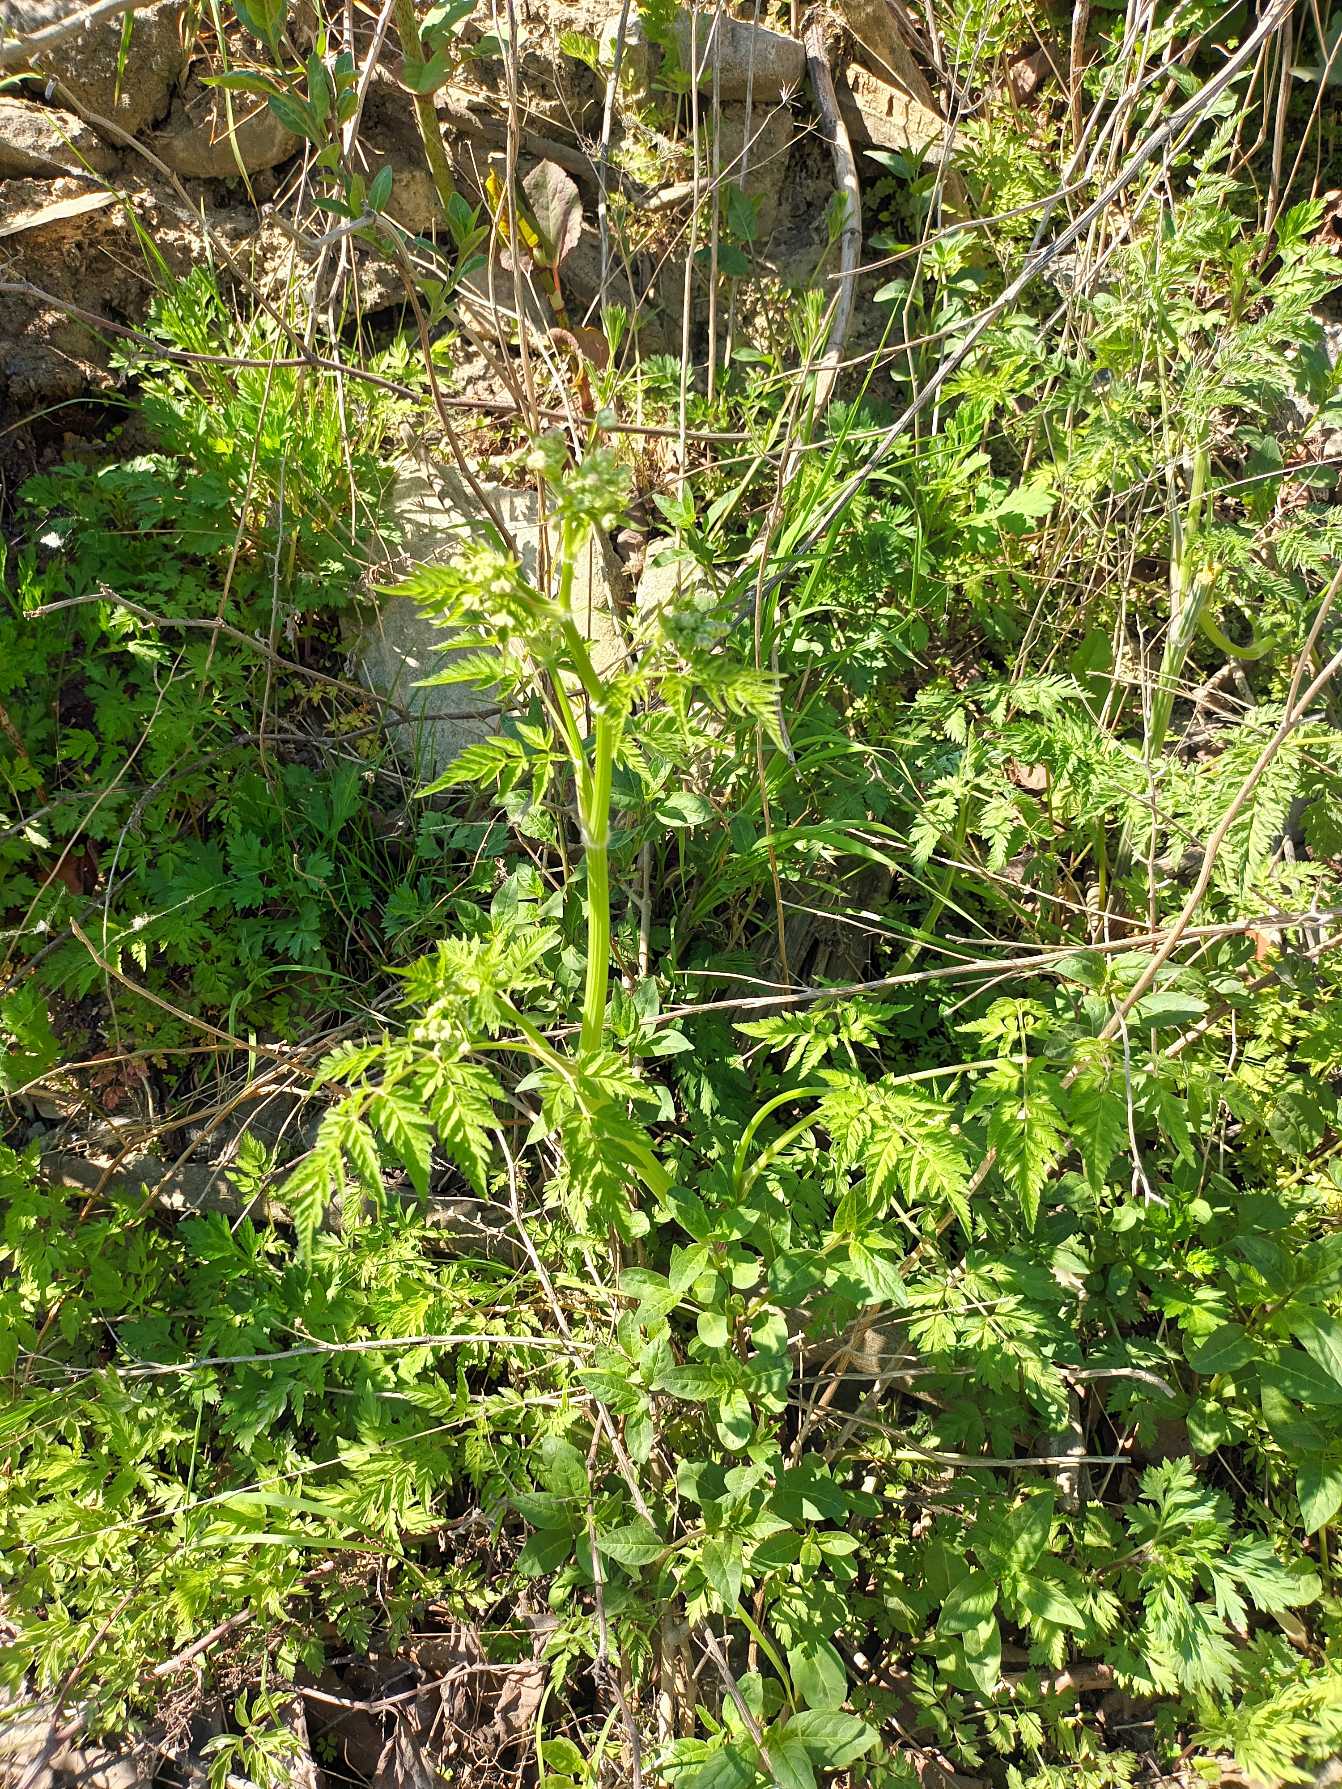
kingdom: Plantae
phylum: Tracheophyta
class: Magnoliopsida
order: Apiales
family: Apiaceae
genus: Anthriscus
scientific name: Anthriscus sylvestris
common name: Vild kørvel
